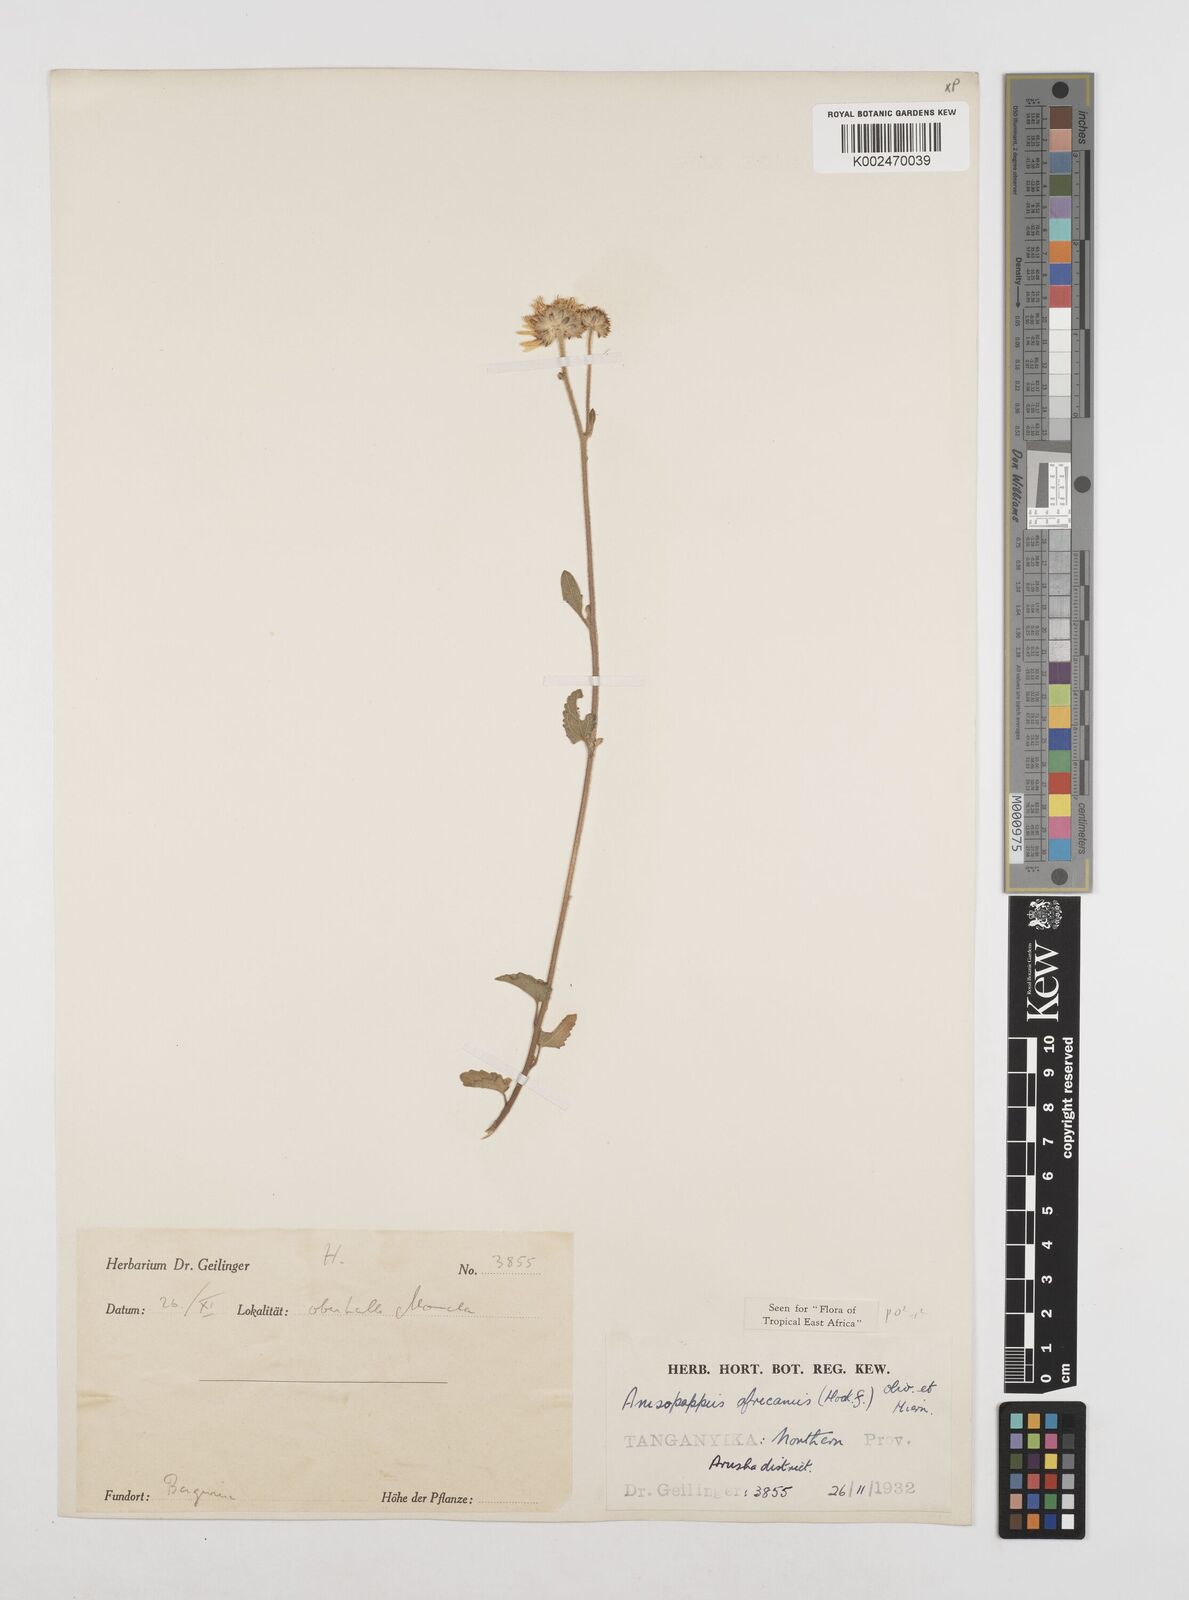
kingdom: Plantae
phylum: Tracheophyta
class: Magnoliopsida
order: Asterales
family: Asteraceae
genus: Anisopappus
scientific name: Anisopappus africanus
